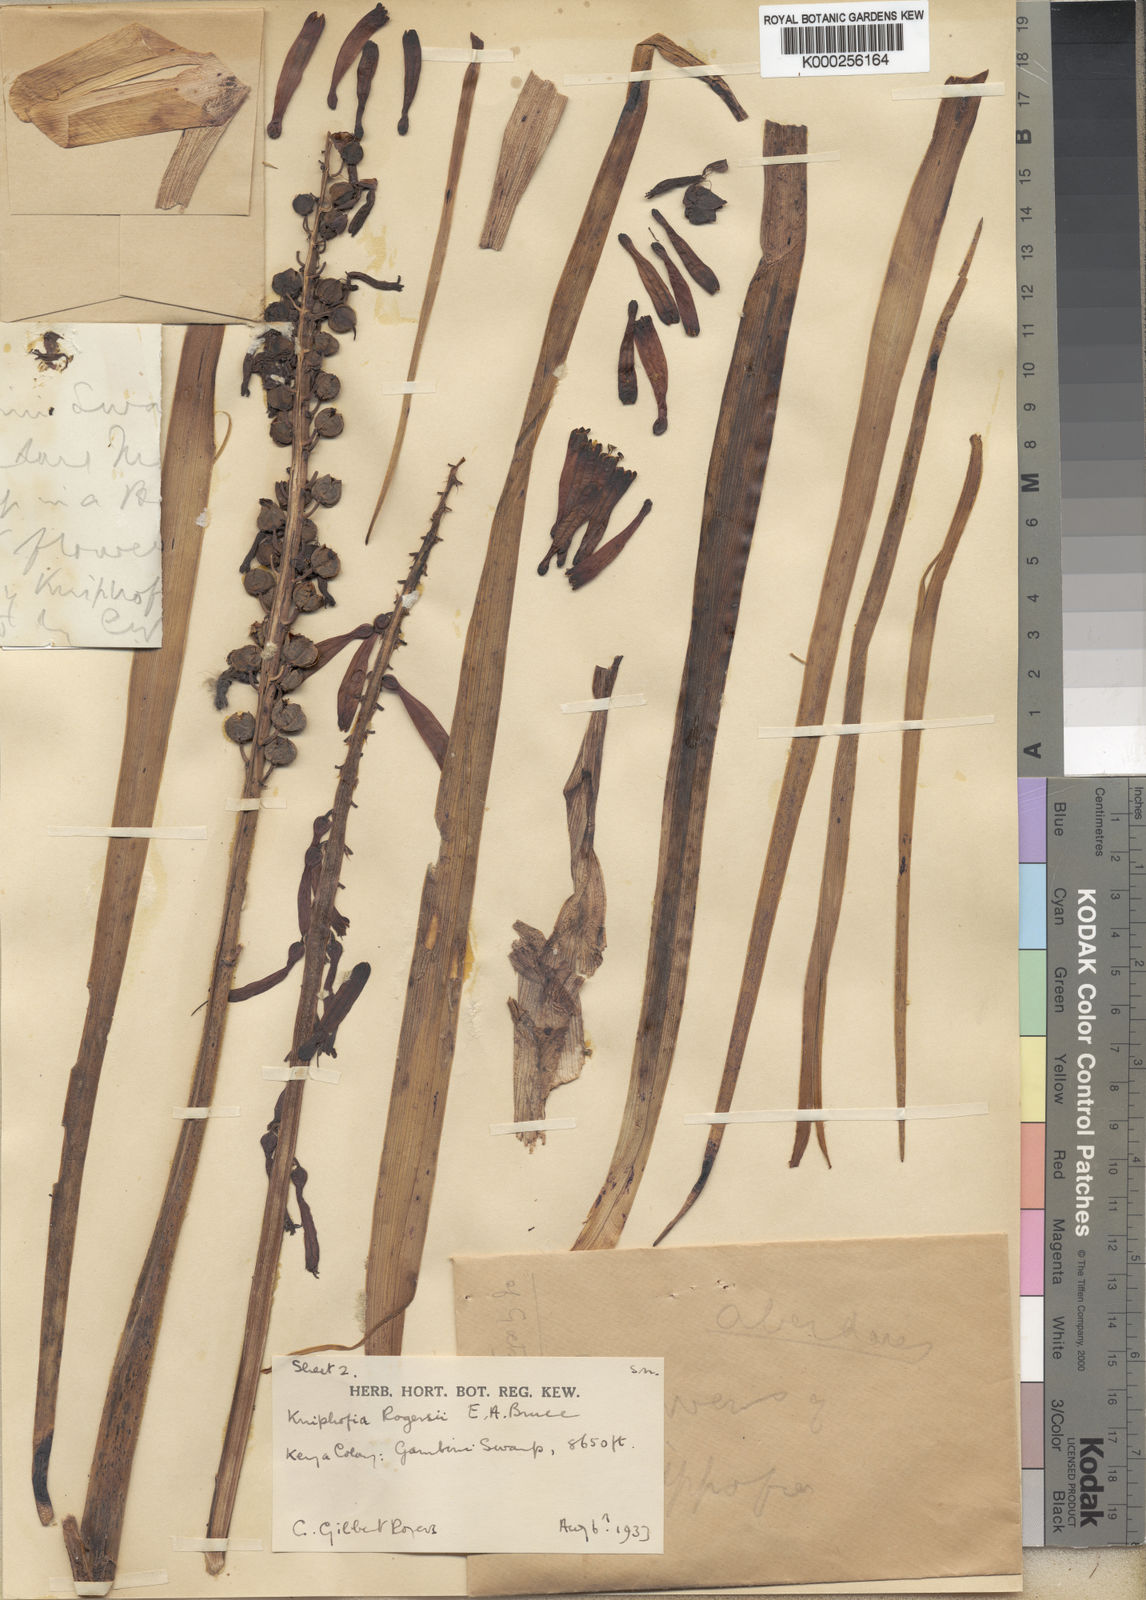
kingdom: Plantae
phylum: Tracheophyta
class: Liliopsida
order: Asparagales
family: Asphodelaceae
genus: Kniphofia
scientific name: Kniphofia thomsonii
